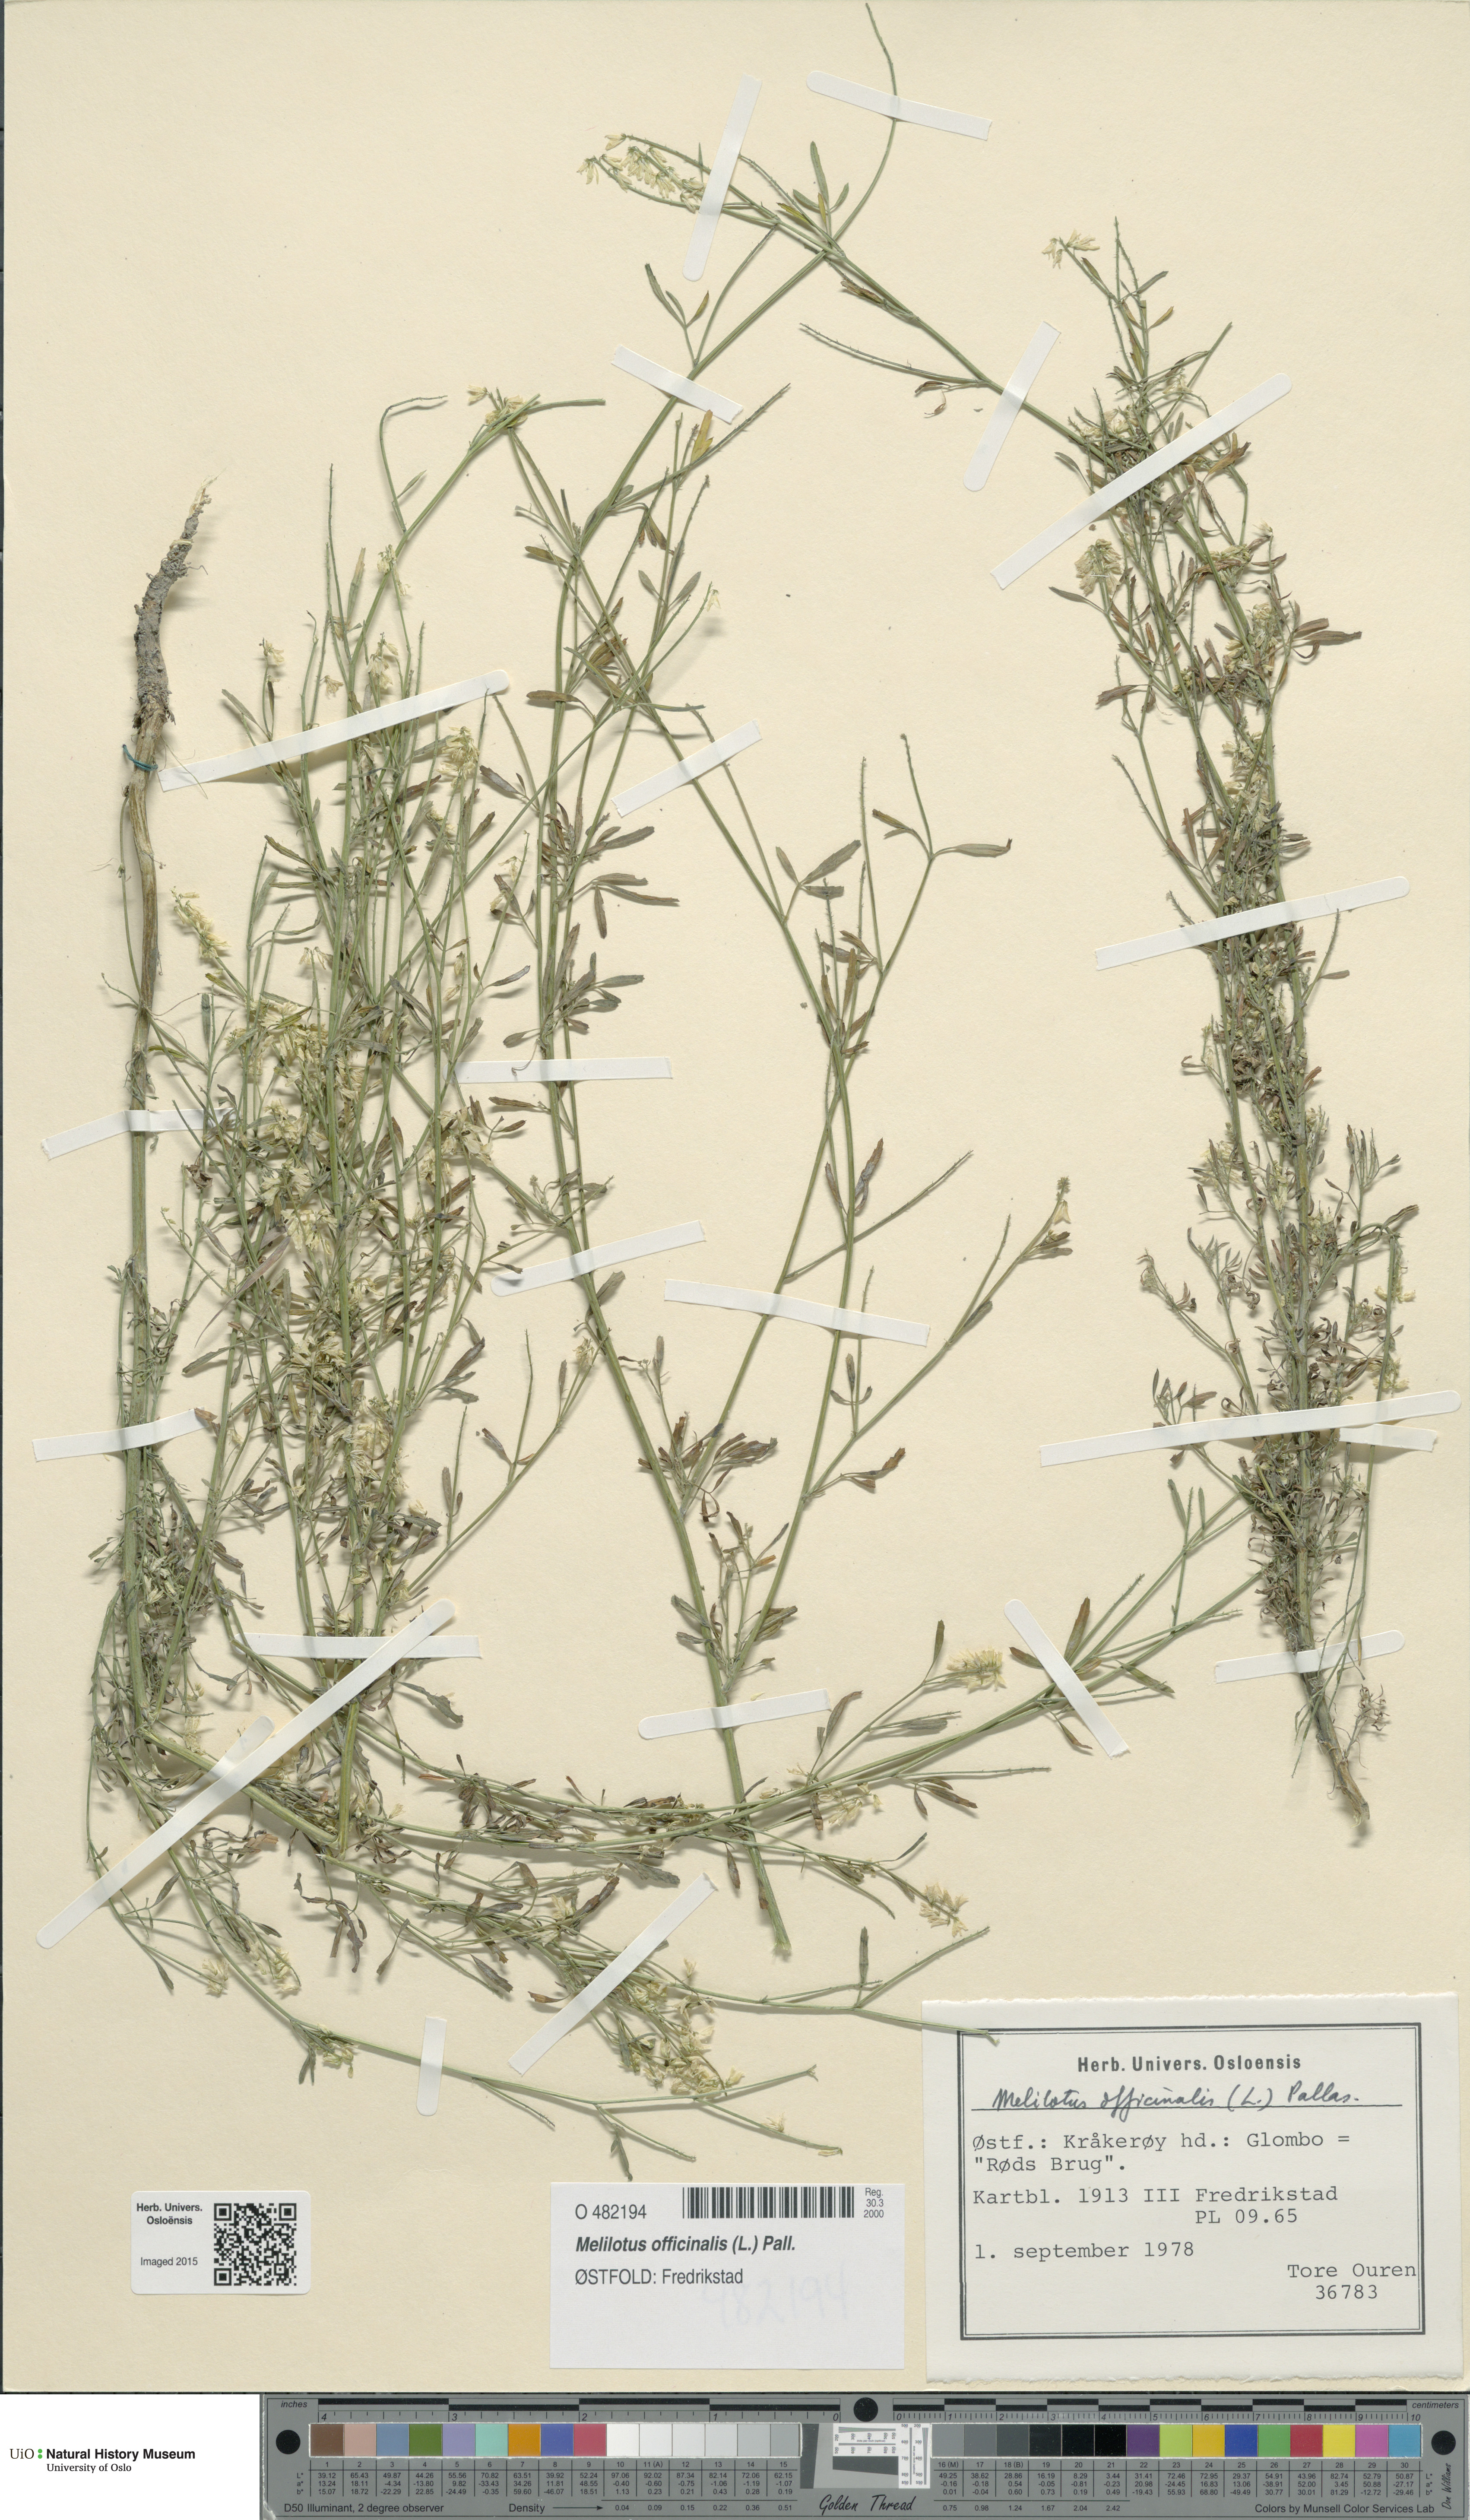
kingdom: Plantae
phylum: Tracheophyta
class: Magnoliopsida
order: Fabales
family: Fabaceae
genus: Melilotus
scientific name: Melilotus officinalis
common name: Sweetclover
